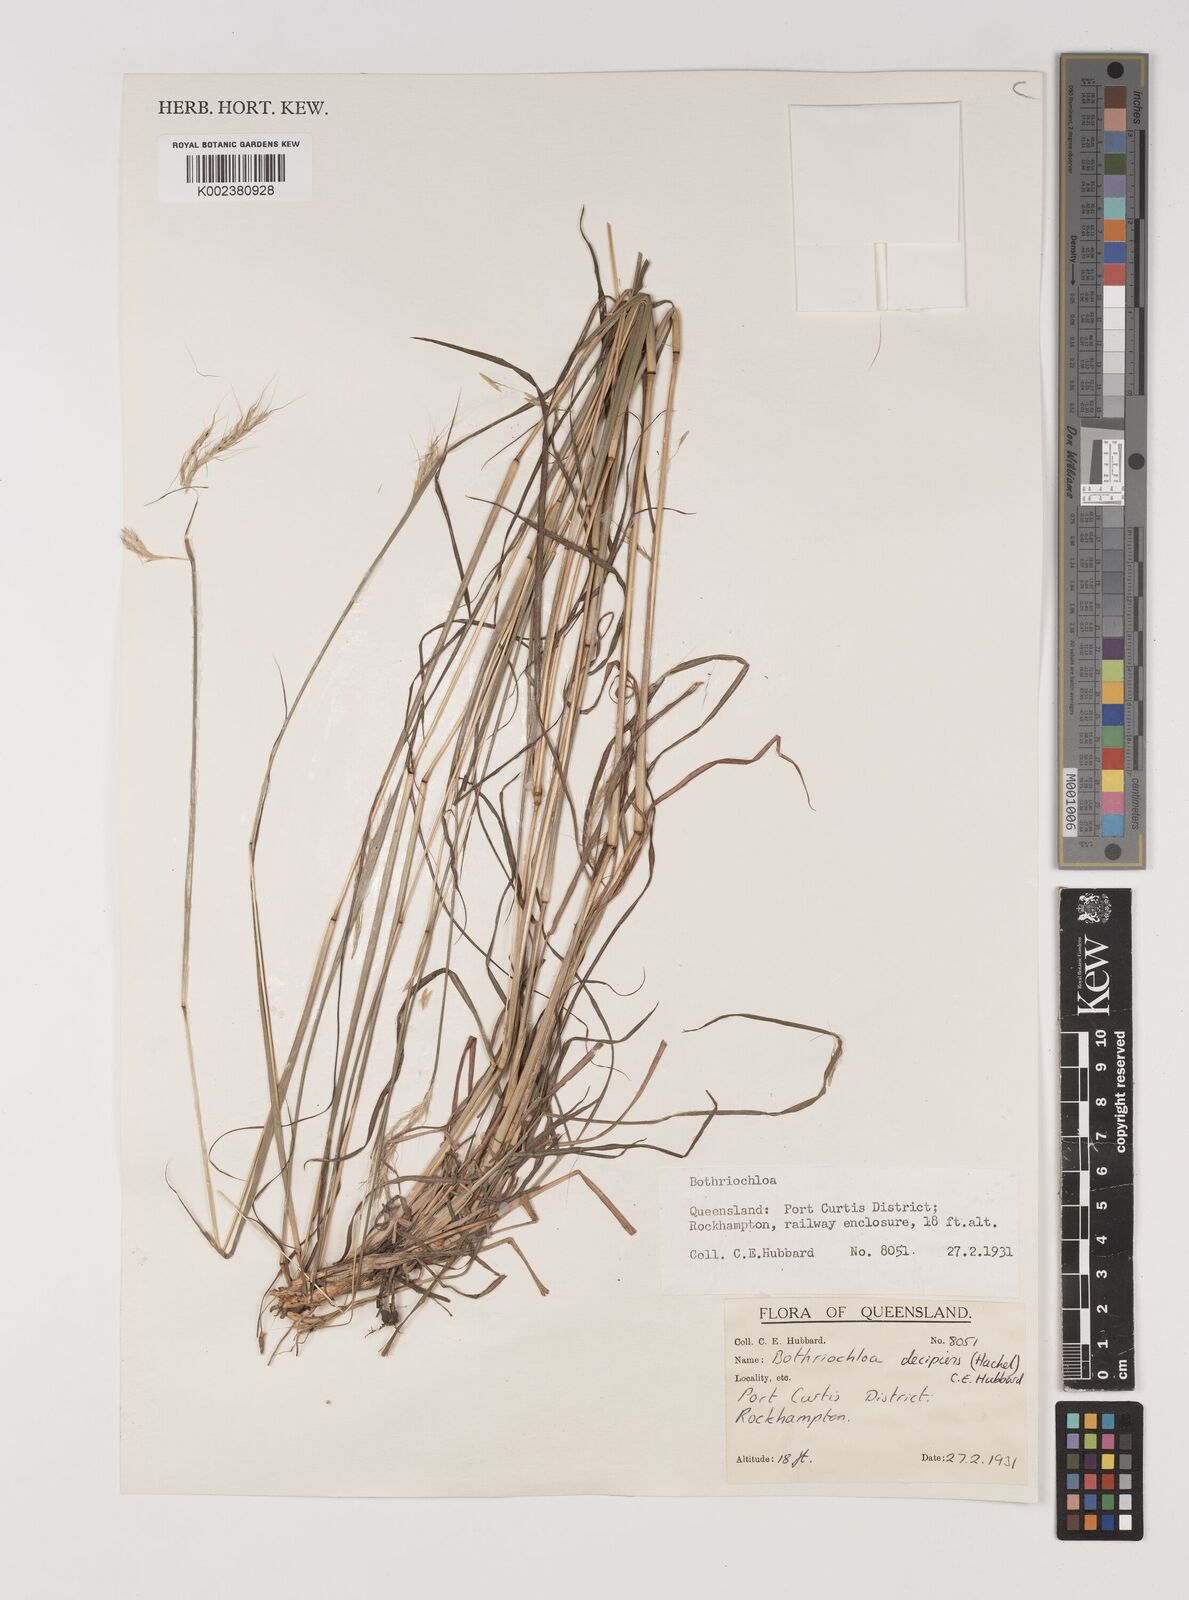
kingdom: Plantae
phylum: Tracheophyta
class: Liliopsida
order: Poales
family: Poaceae
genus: Bothriochloa
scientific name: Bothriochloa decipiens
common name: Pitted-bluegrass
